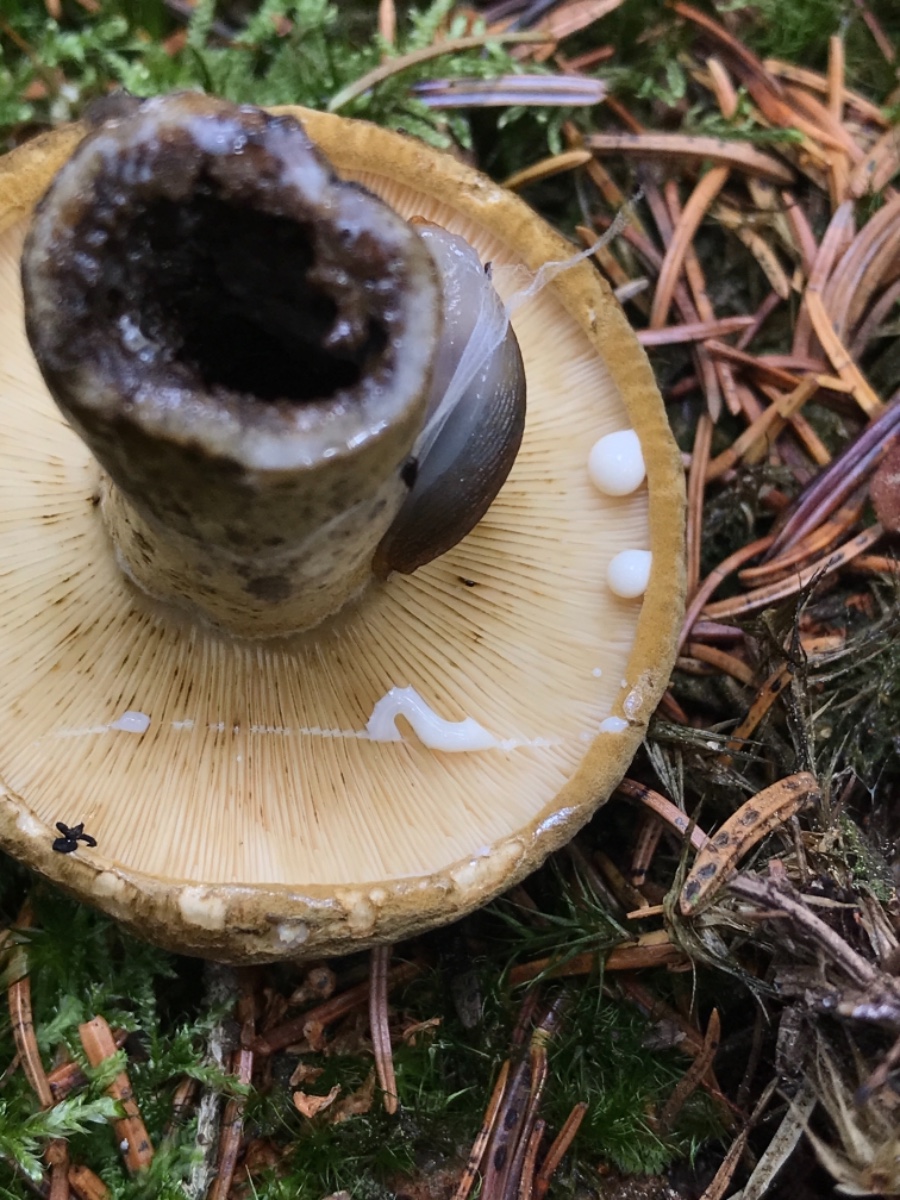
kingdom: Fungi
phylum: Basidiomycota
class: Agaricomycetes
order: Russulales
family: Russulaceae
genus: Lactarius
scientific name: Lactarius necator
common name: manddraber-mælkehat
